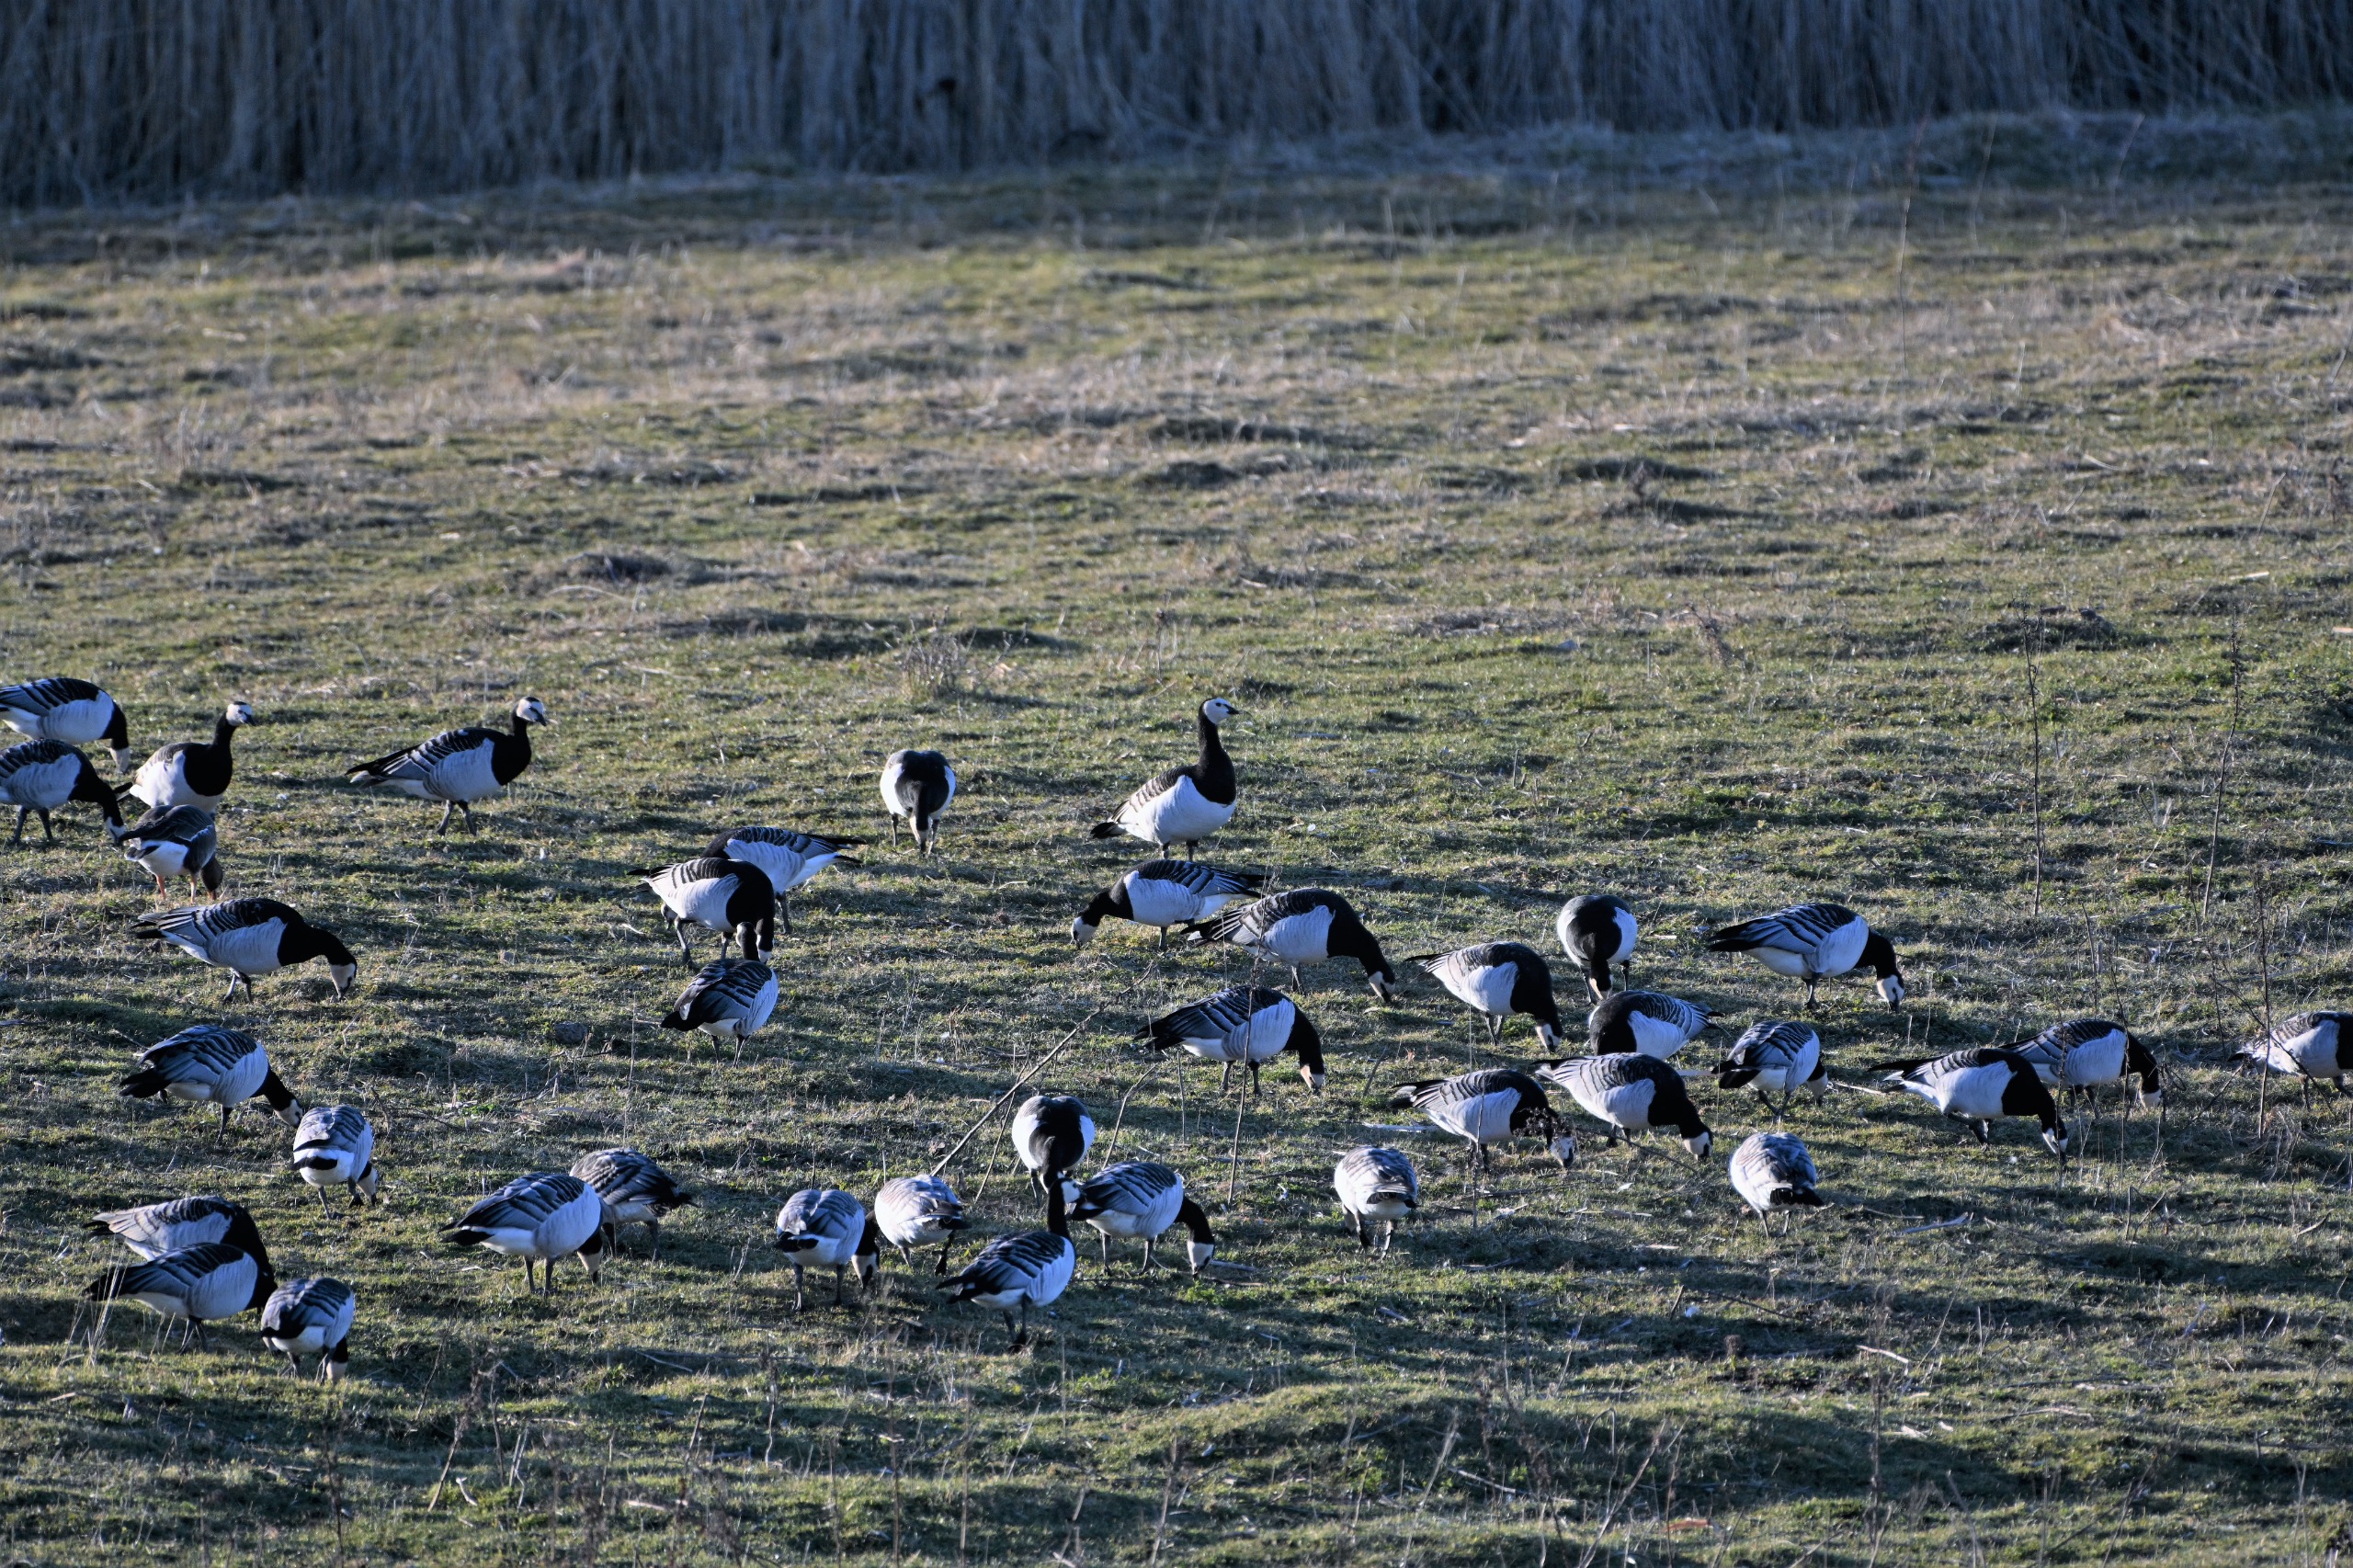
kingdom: Animalia
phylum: Chordata
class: Aves
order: Anseriformes
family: Anatidae
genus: Branta
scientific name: Branta leucopsis
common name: Bramgås
